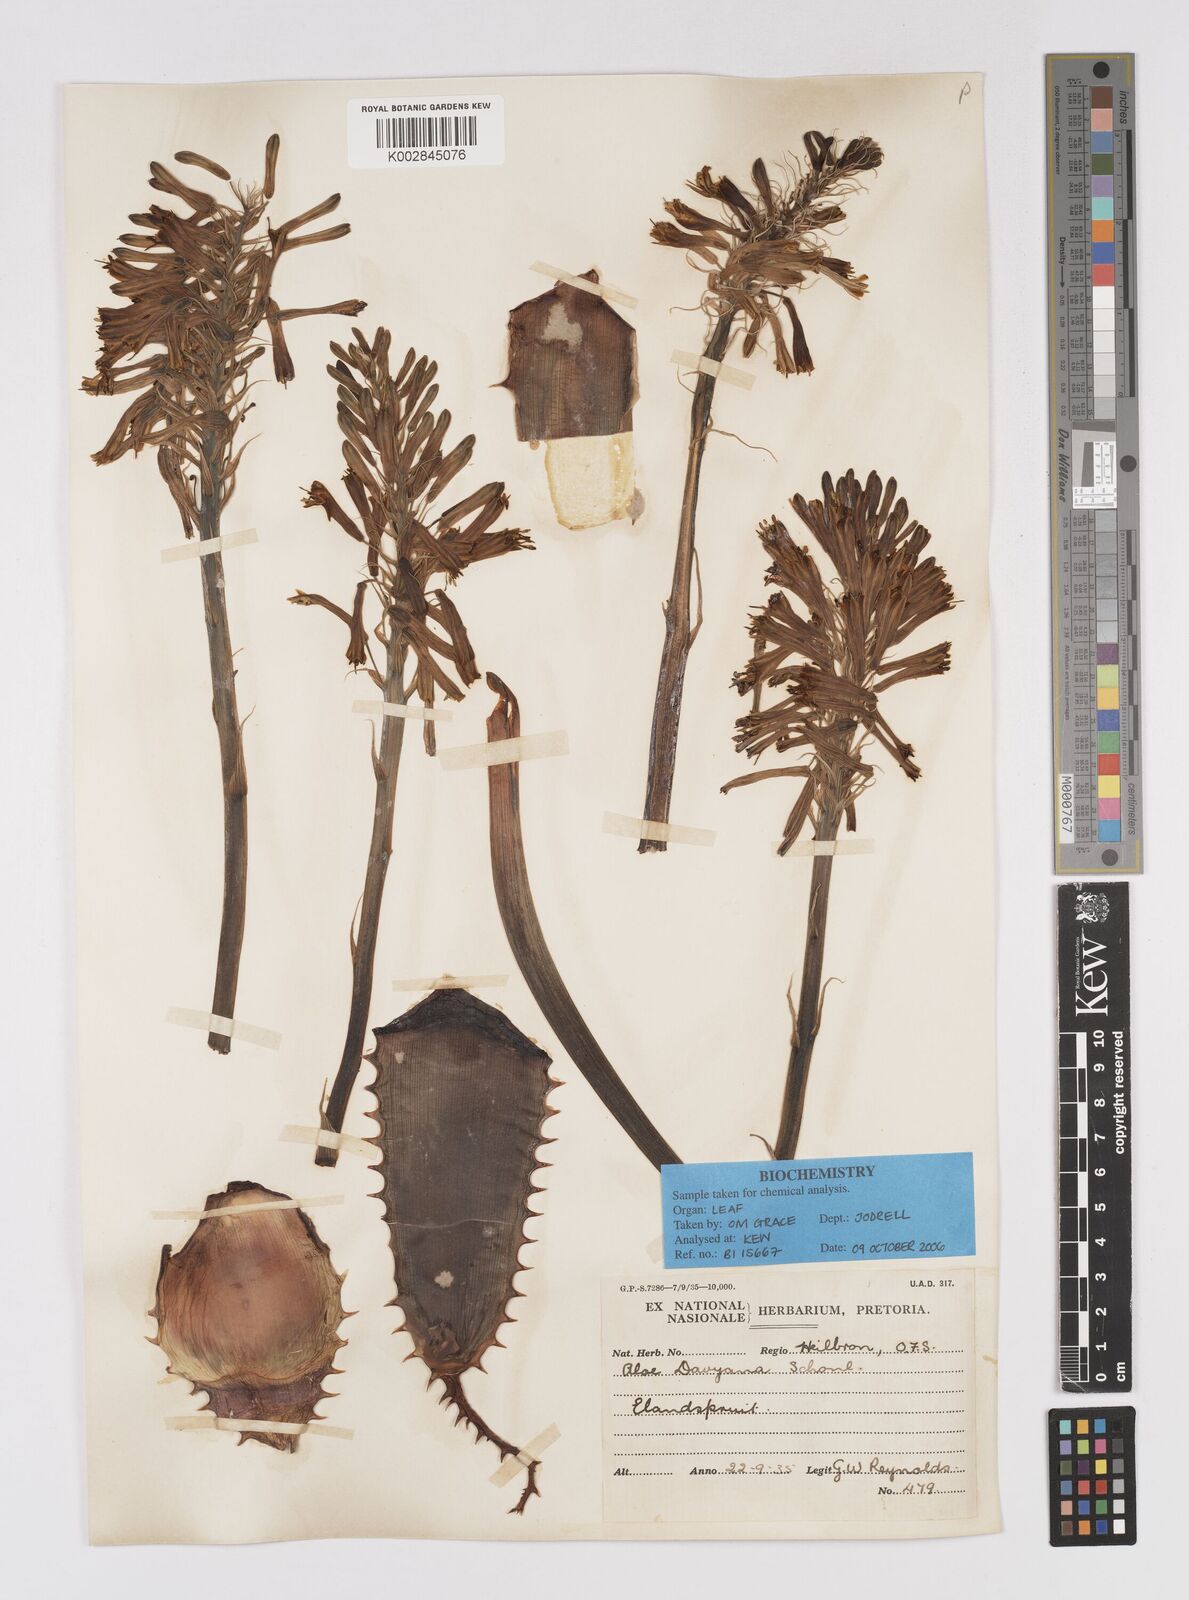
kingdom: Plantae
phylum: Tracheophyta
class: Liliopsida
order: Asparagales
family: Asphodelaceae
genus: Aloe
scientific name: Aloe davyana
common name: Spotted aloe
